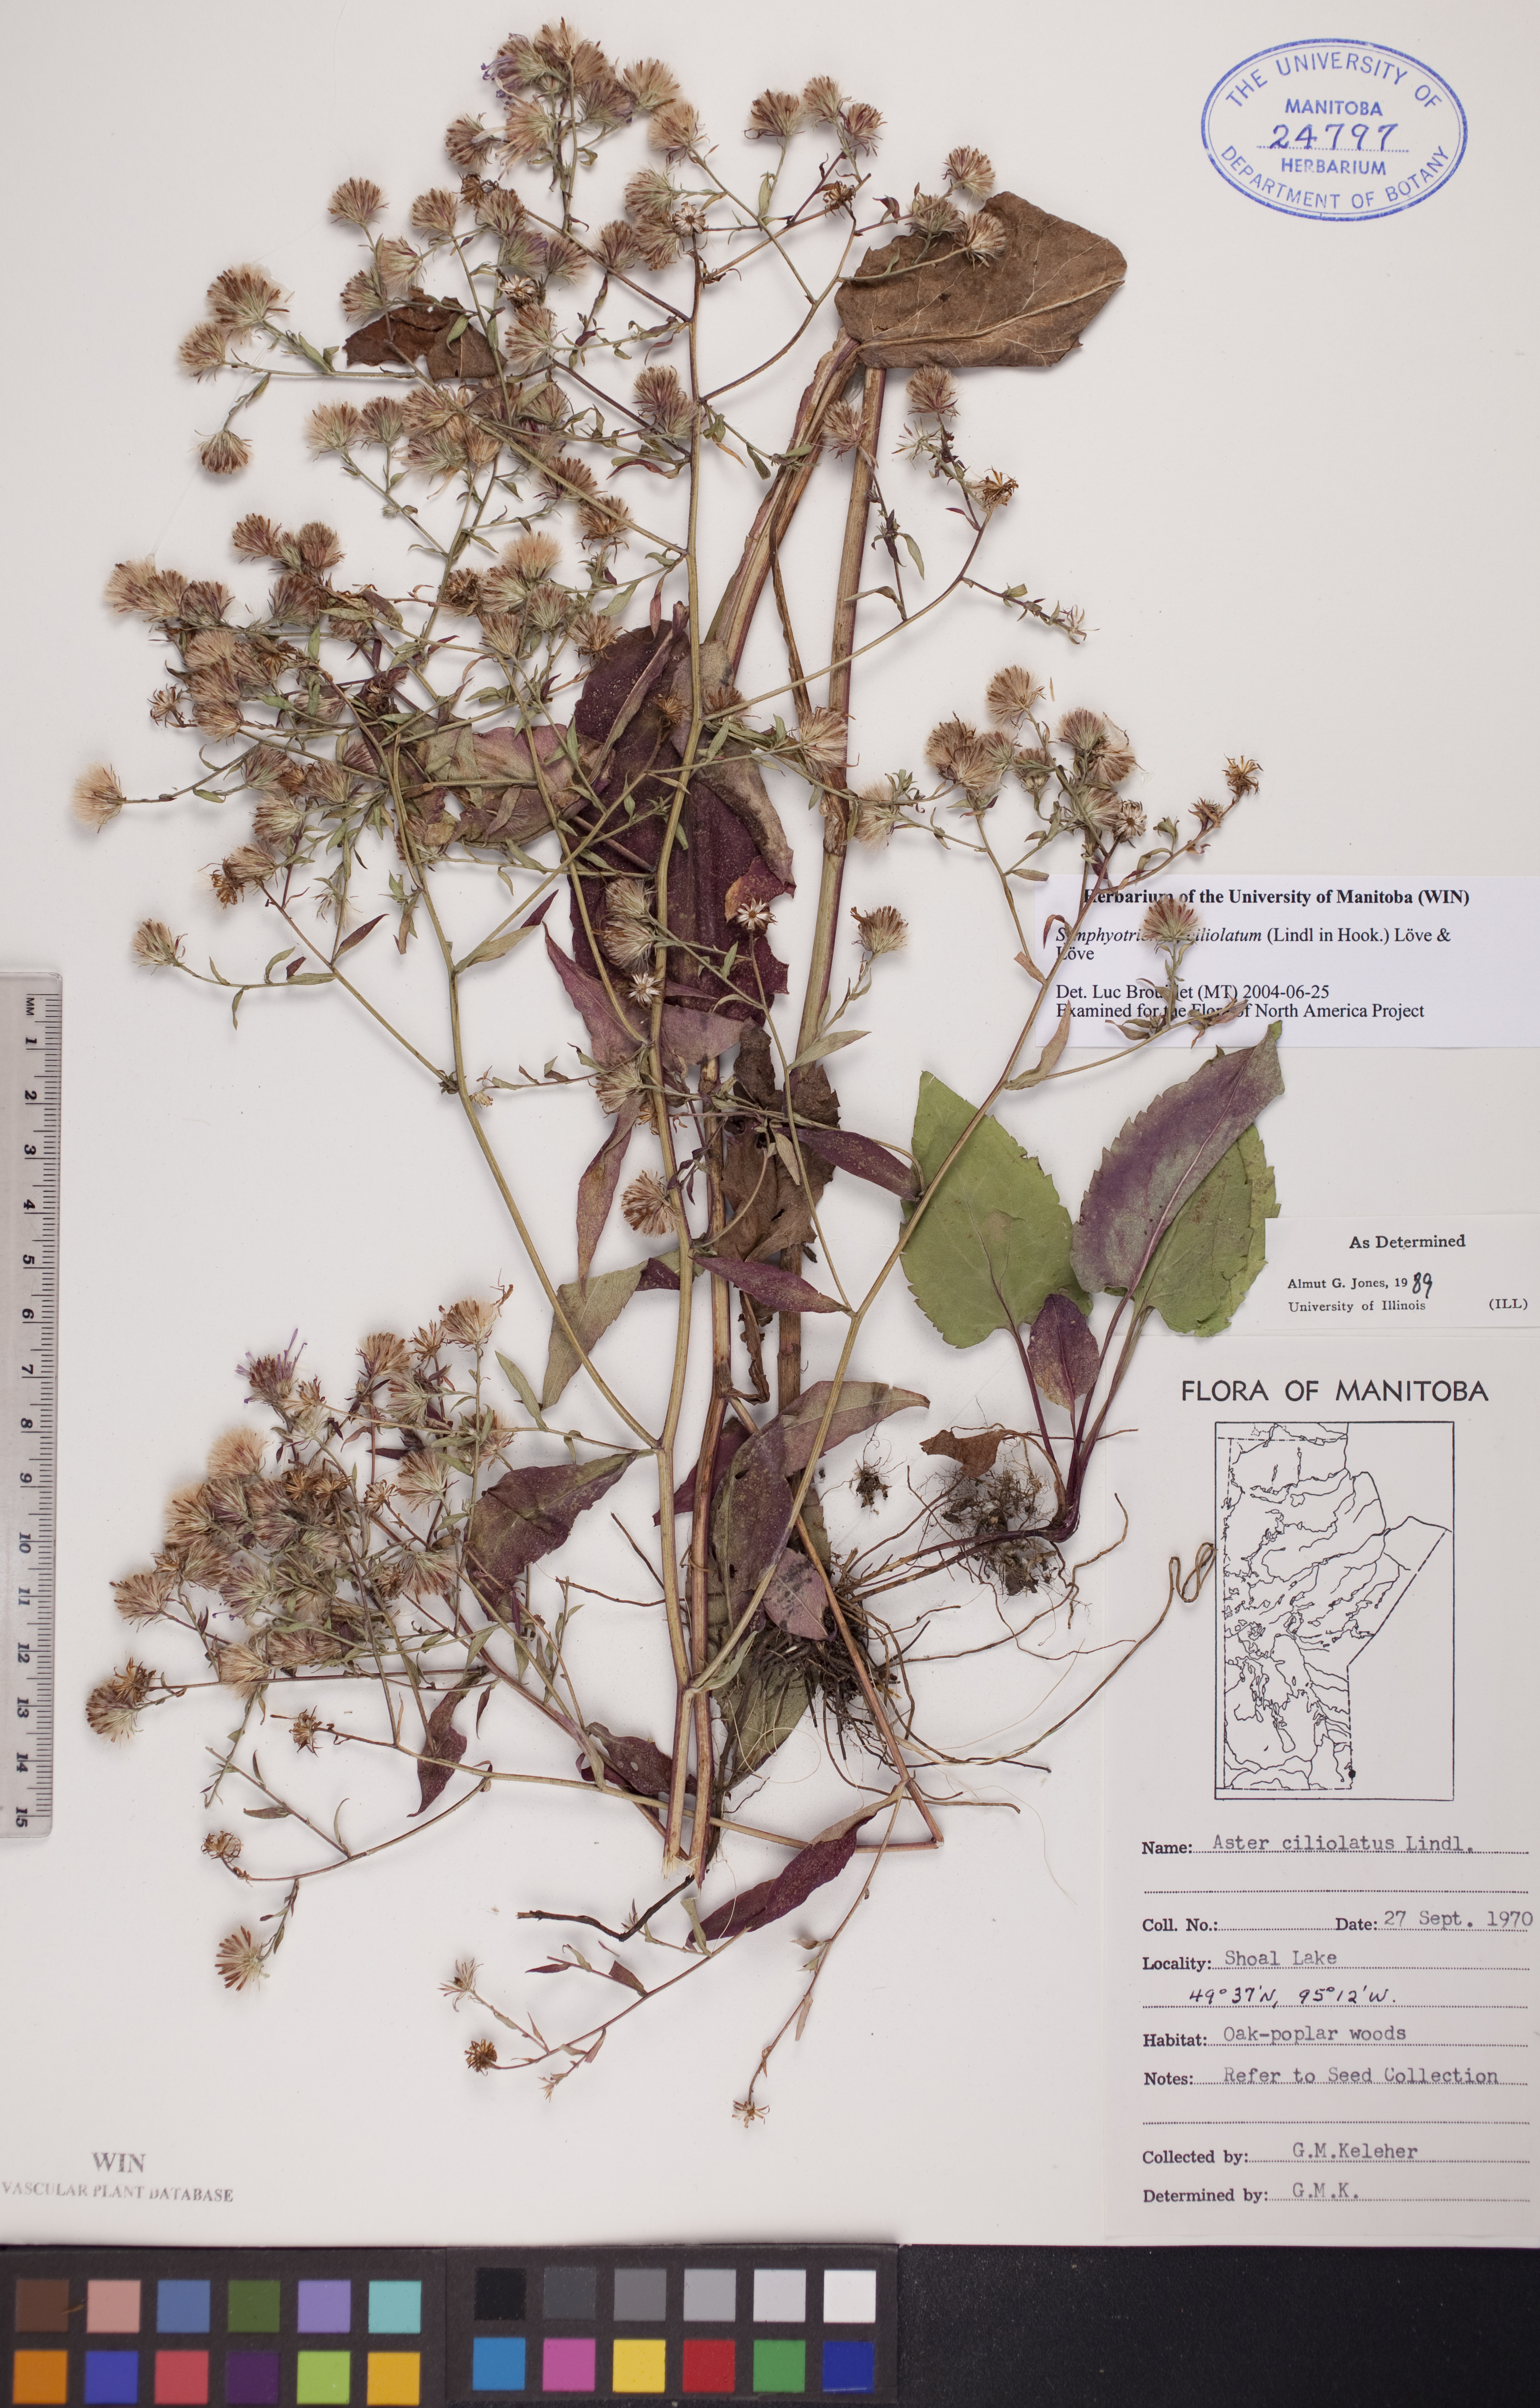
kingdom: Plantae
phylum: Tracheophyta
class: Magnoliopsida
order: Asterales
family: Asteraceae
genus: Symphyotrichum
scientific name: Symphyotrichum ciliolatum
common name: Fringed blue aster
